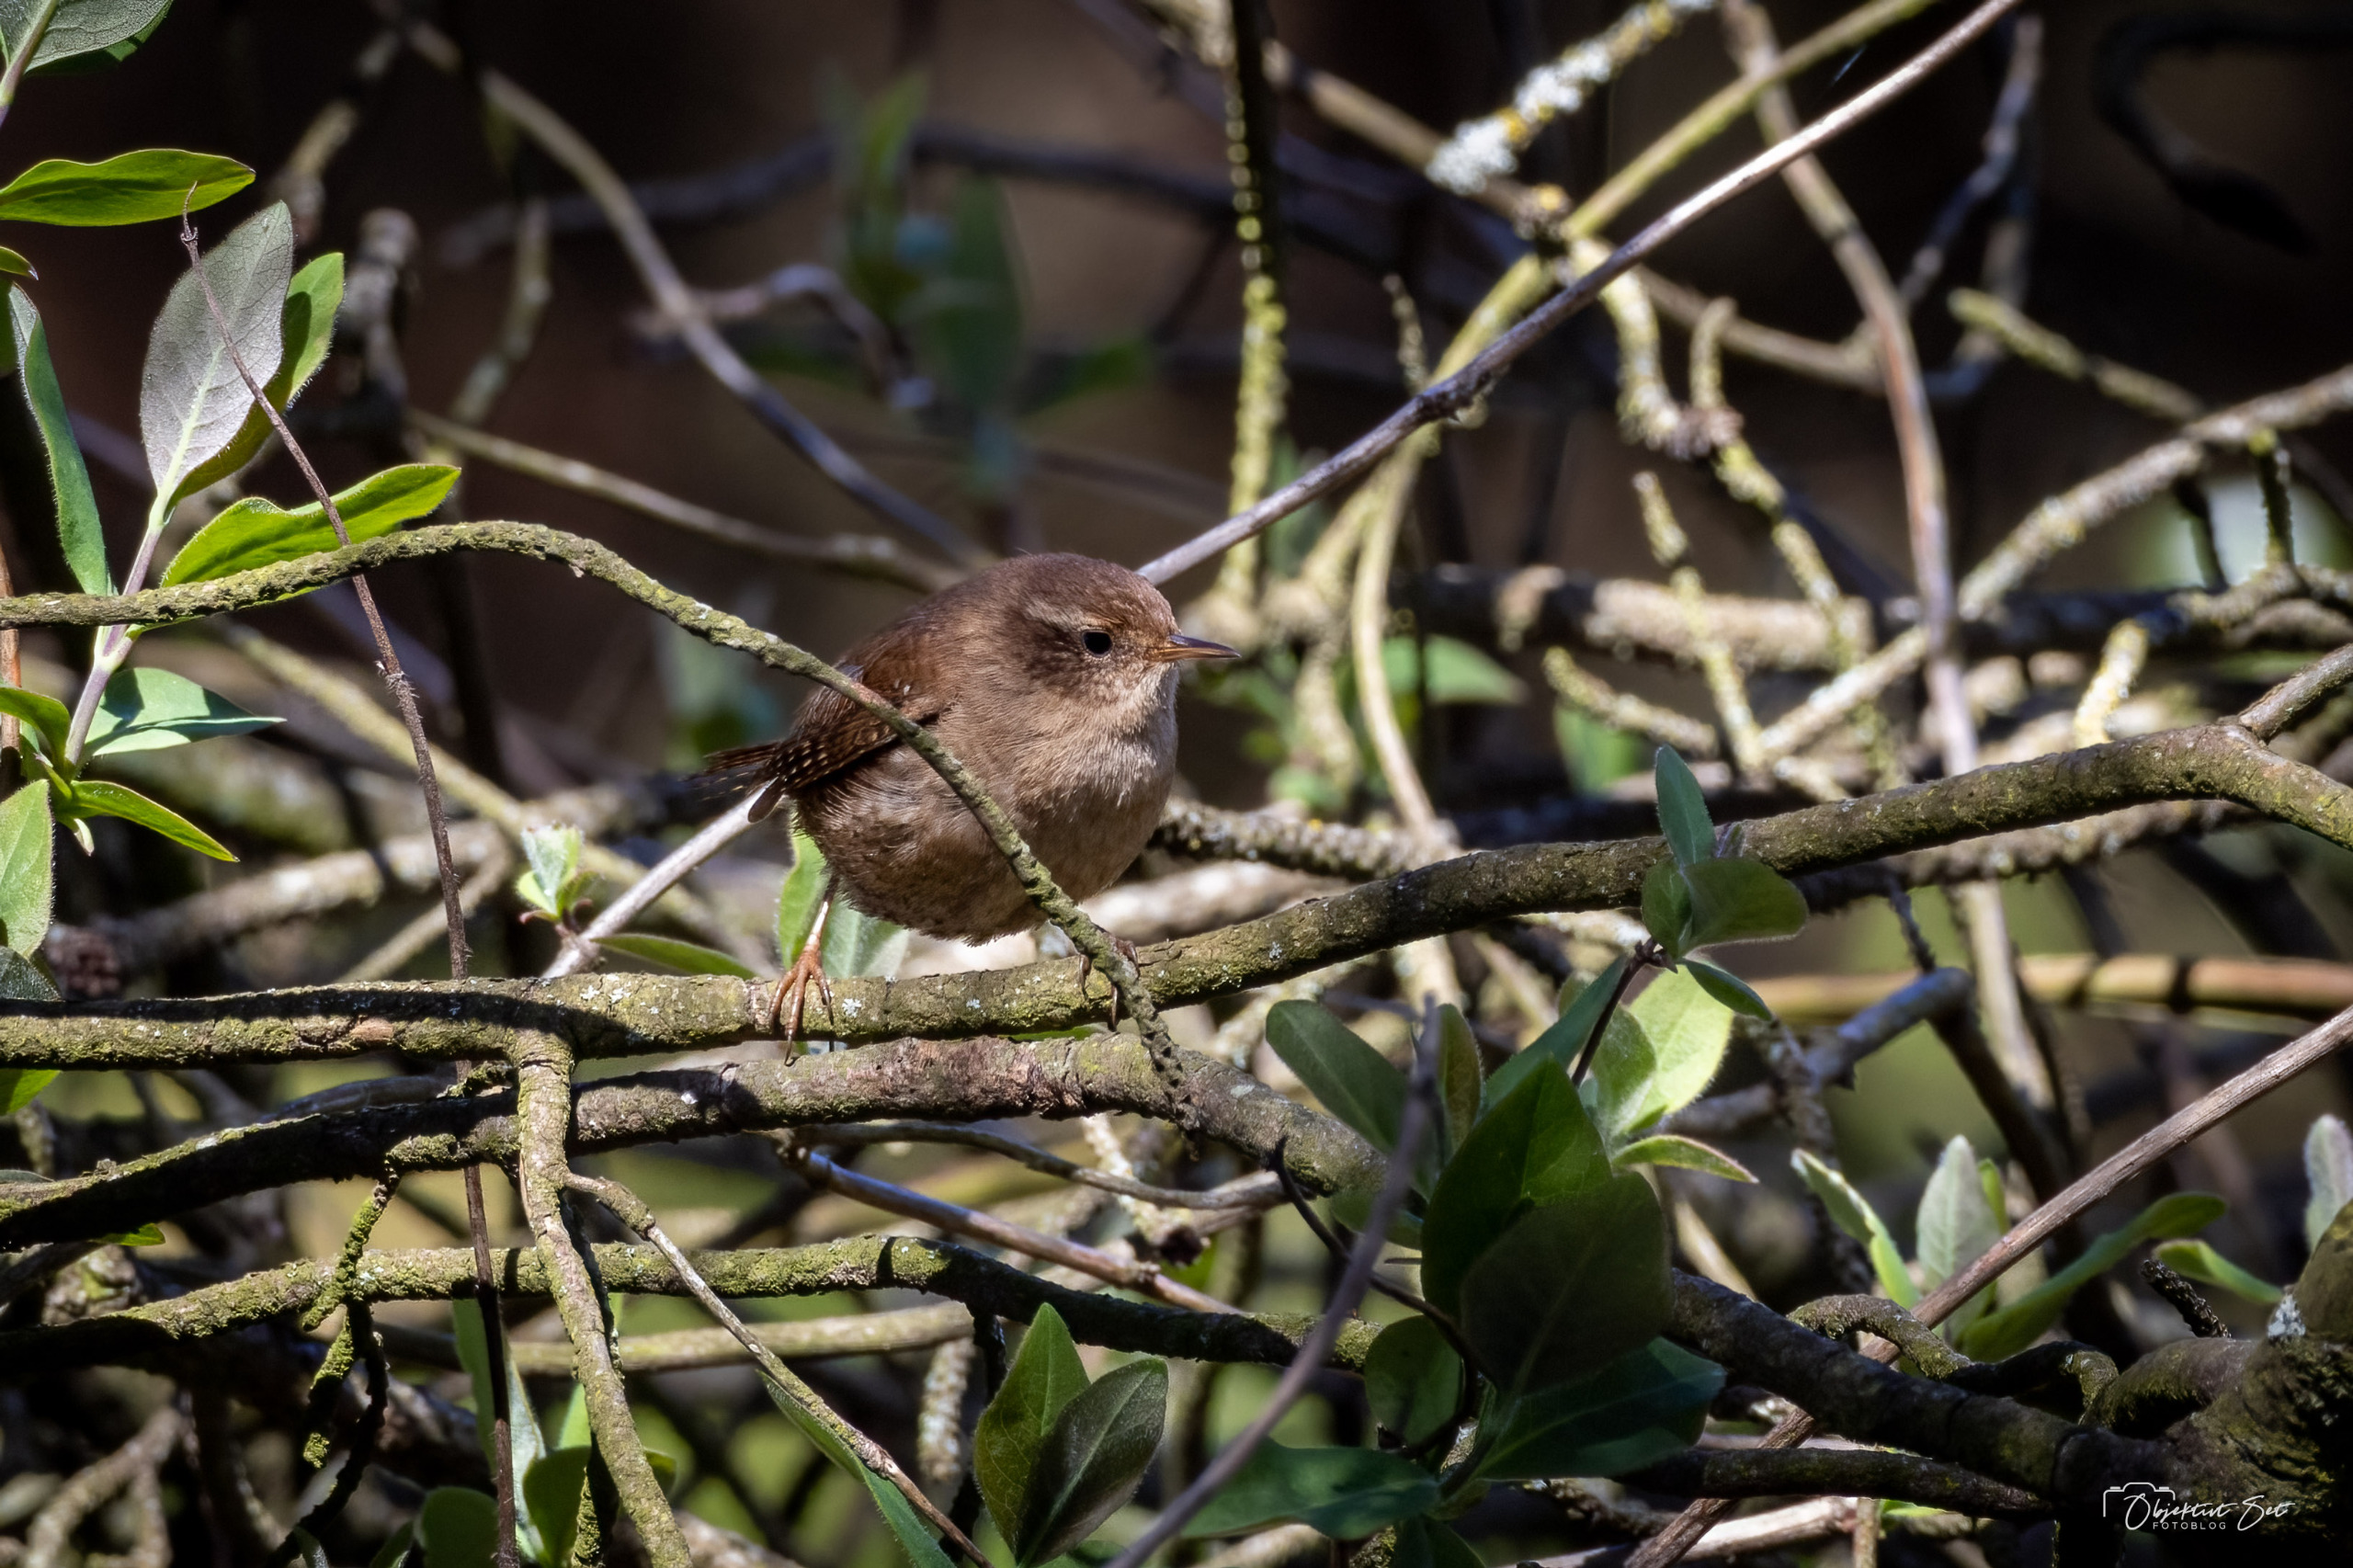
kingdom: Animalia
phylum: Chordata
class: Aves
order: Passeriformes
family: Troglodytidae
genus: Troglodytes
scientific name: Troglodytes troglodytes
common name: Gærdesmutte
